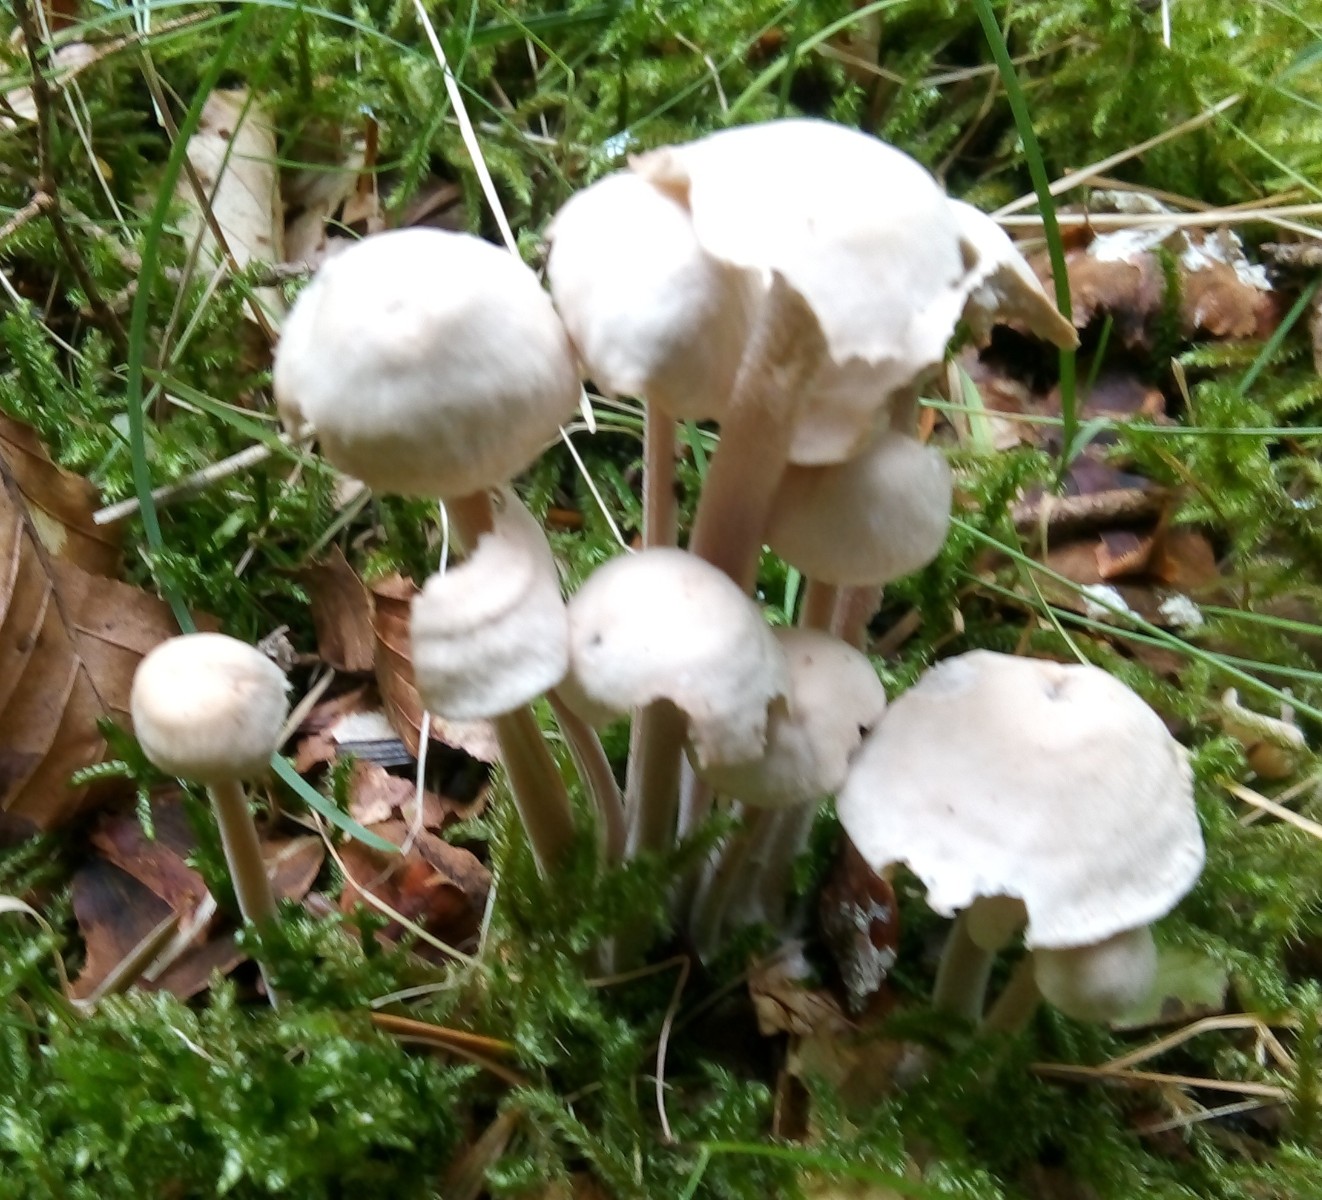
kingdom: Fungi
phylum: Basidiomycota
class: Agaricomycetes
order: Agaricales
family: Omphalotaceae
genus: Collybiopsis
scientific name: Collybiopsis confluens
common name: knippe-fladhat
